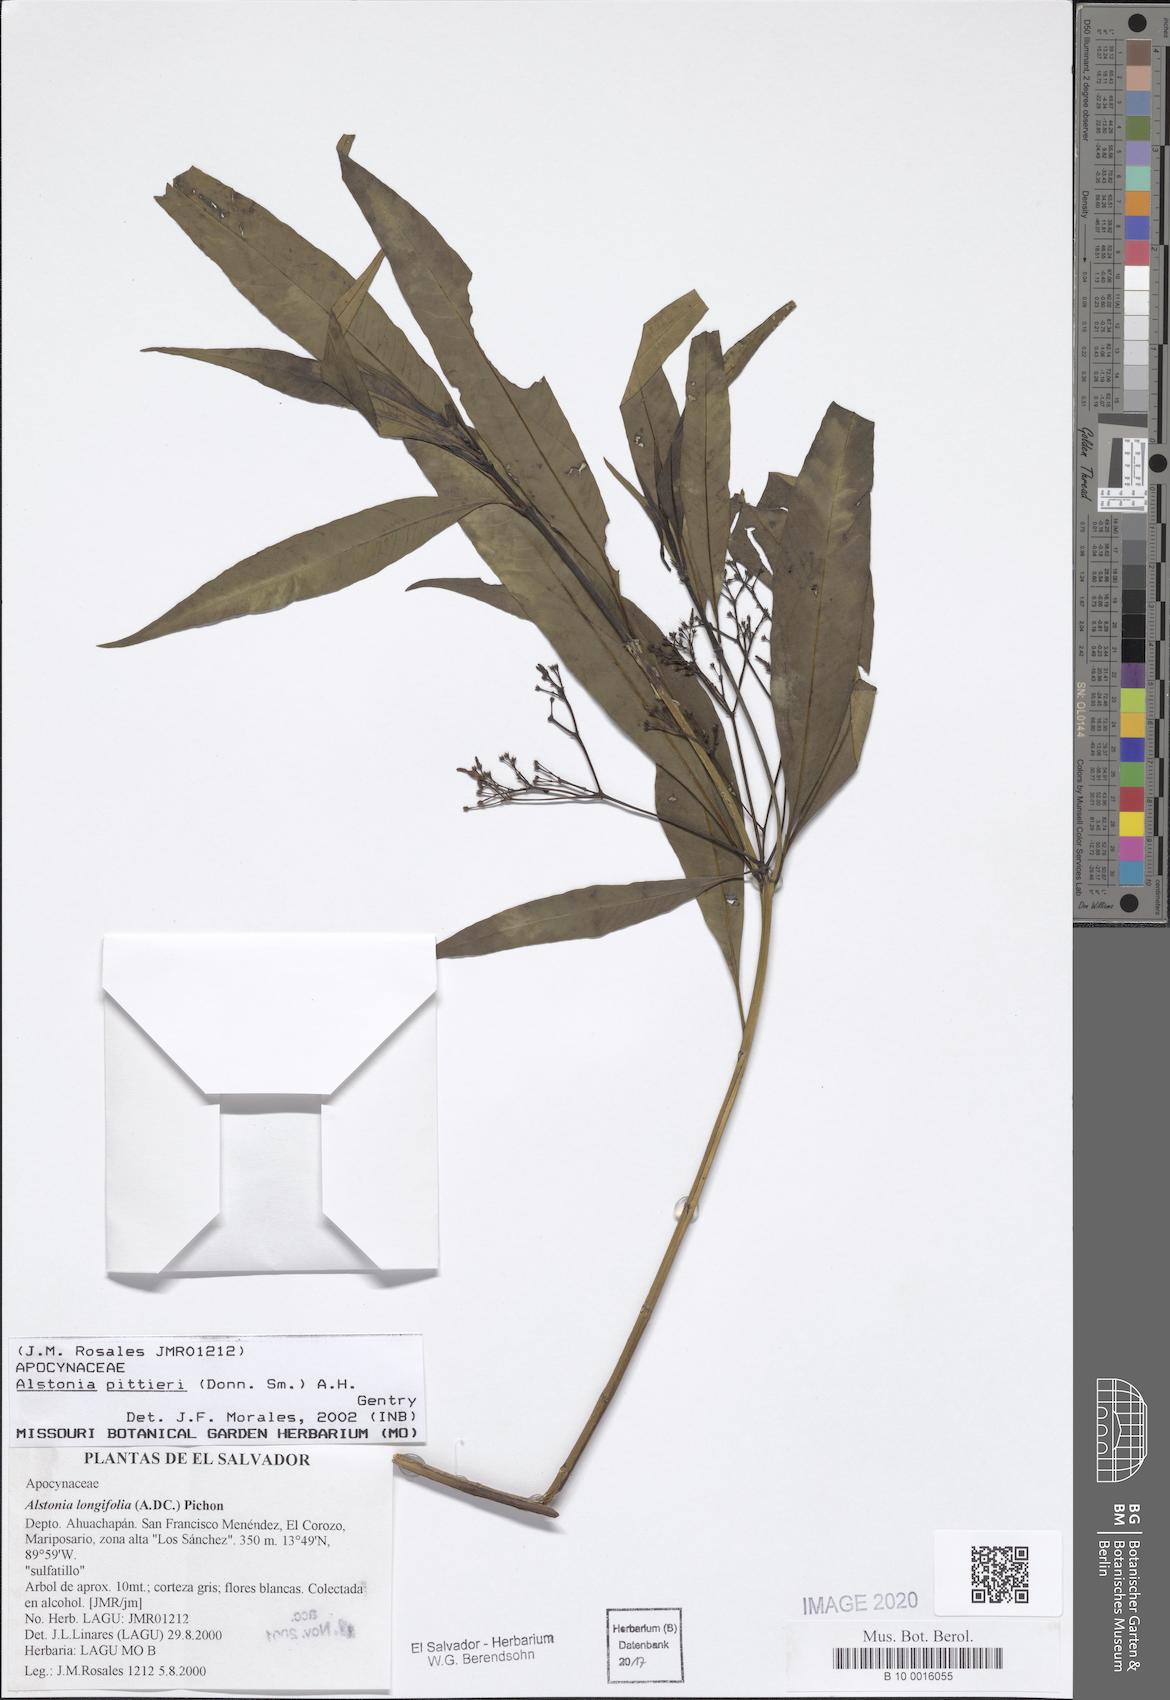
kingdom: Plantae
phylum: Tracheophyta
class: Magnoliopsida
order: Gentianales
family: Apocynaceae
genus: Tonduzia
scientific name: Tonduzia longifolia
